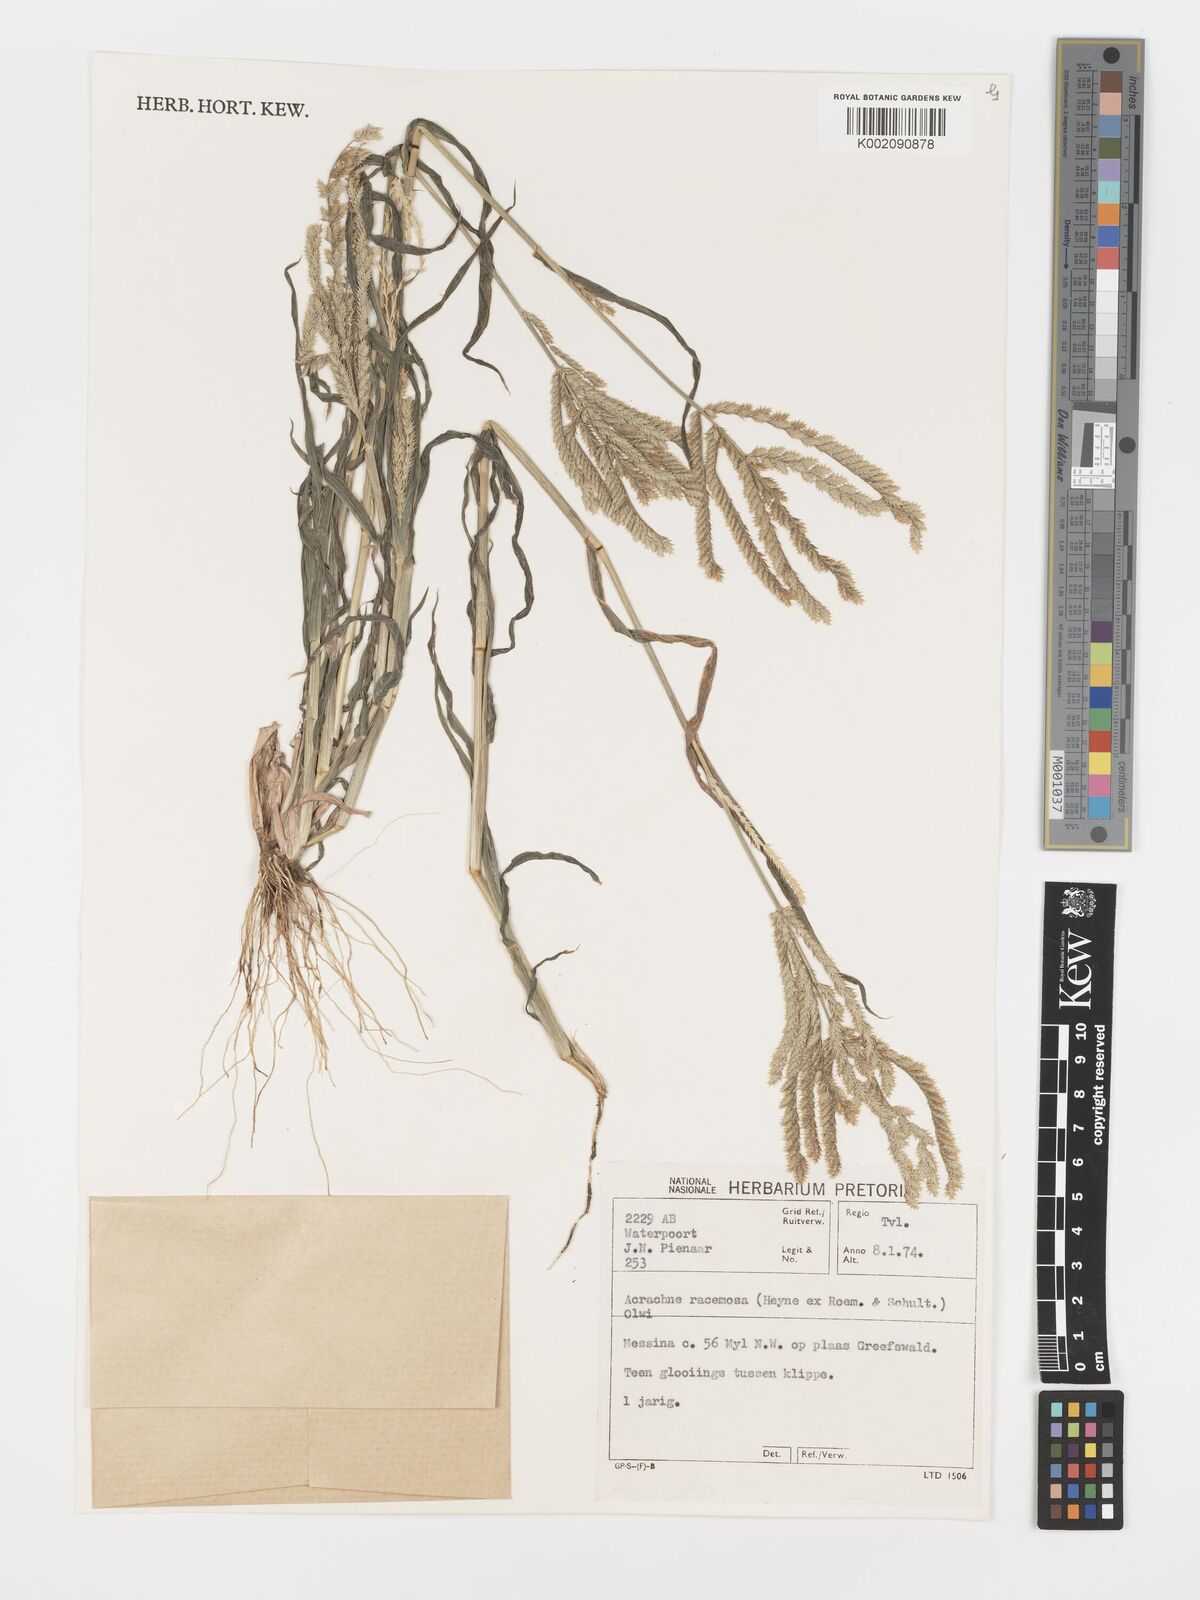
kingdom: Plantae
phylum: Tracheophyta
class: Liliopsida
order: Poales
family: Poaceae
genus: Acrachne
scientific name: Acrachne racemosa
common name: Goosegrass
